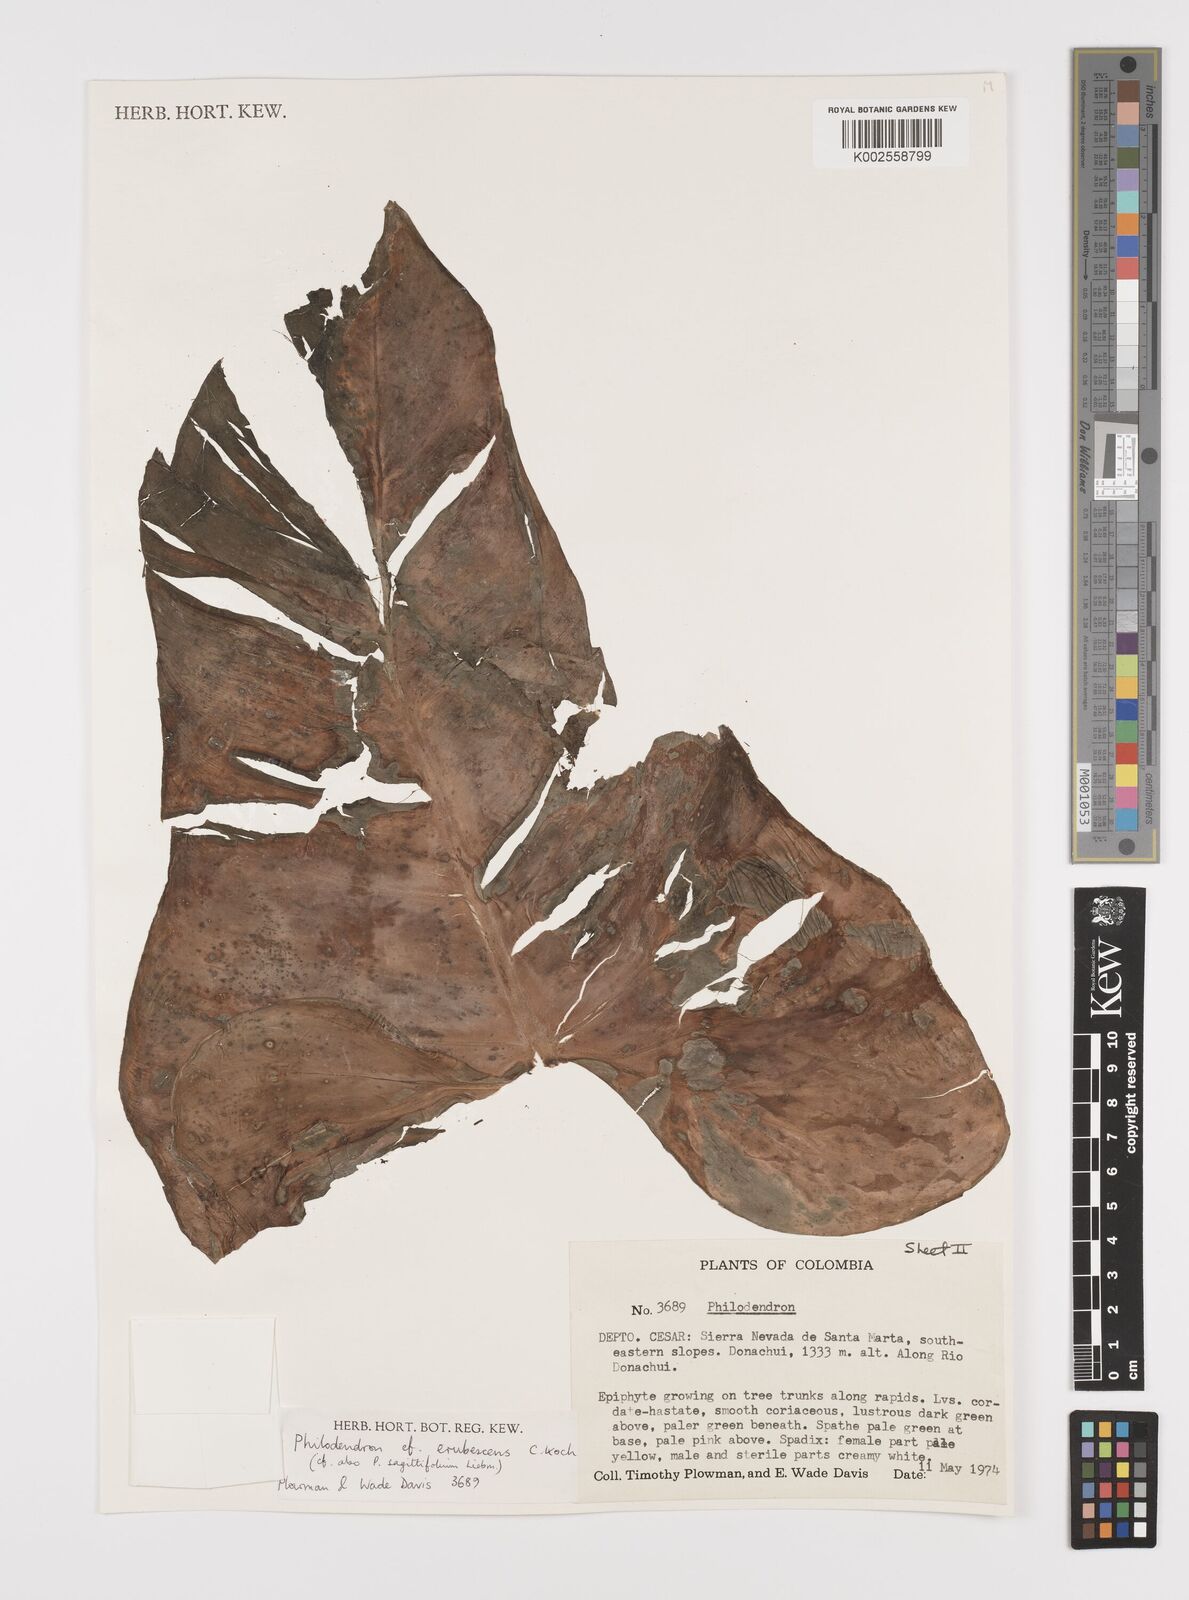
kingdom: Plantae
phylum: Tracheophyta
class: Liliopsida
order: Alismatales
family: Araceae
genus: Philodendron
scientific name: Philodendron erubescens
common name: Philodendron
